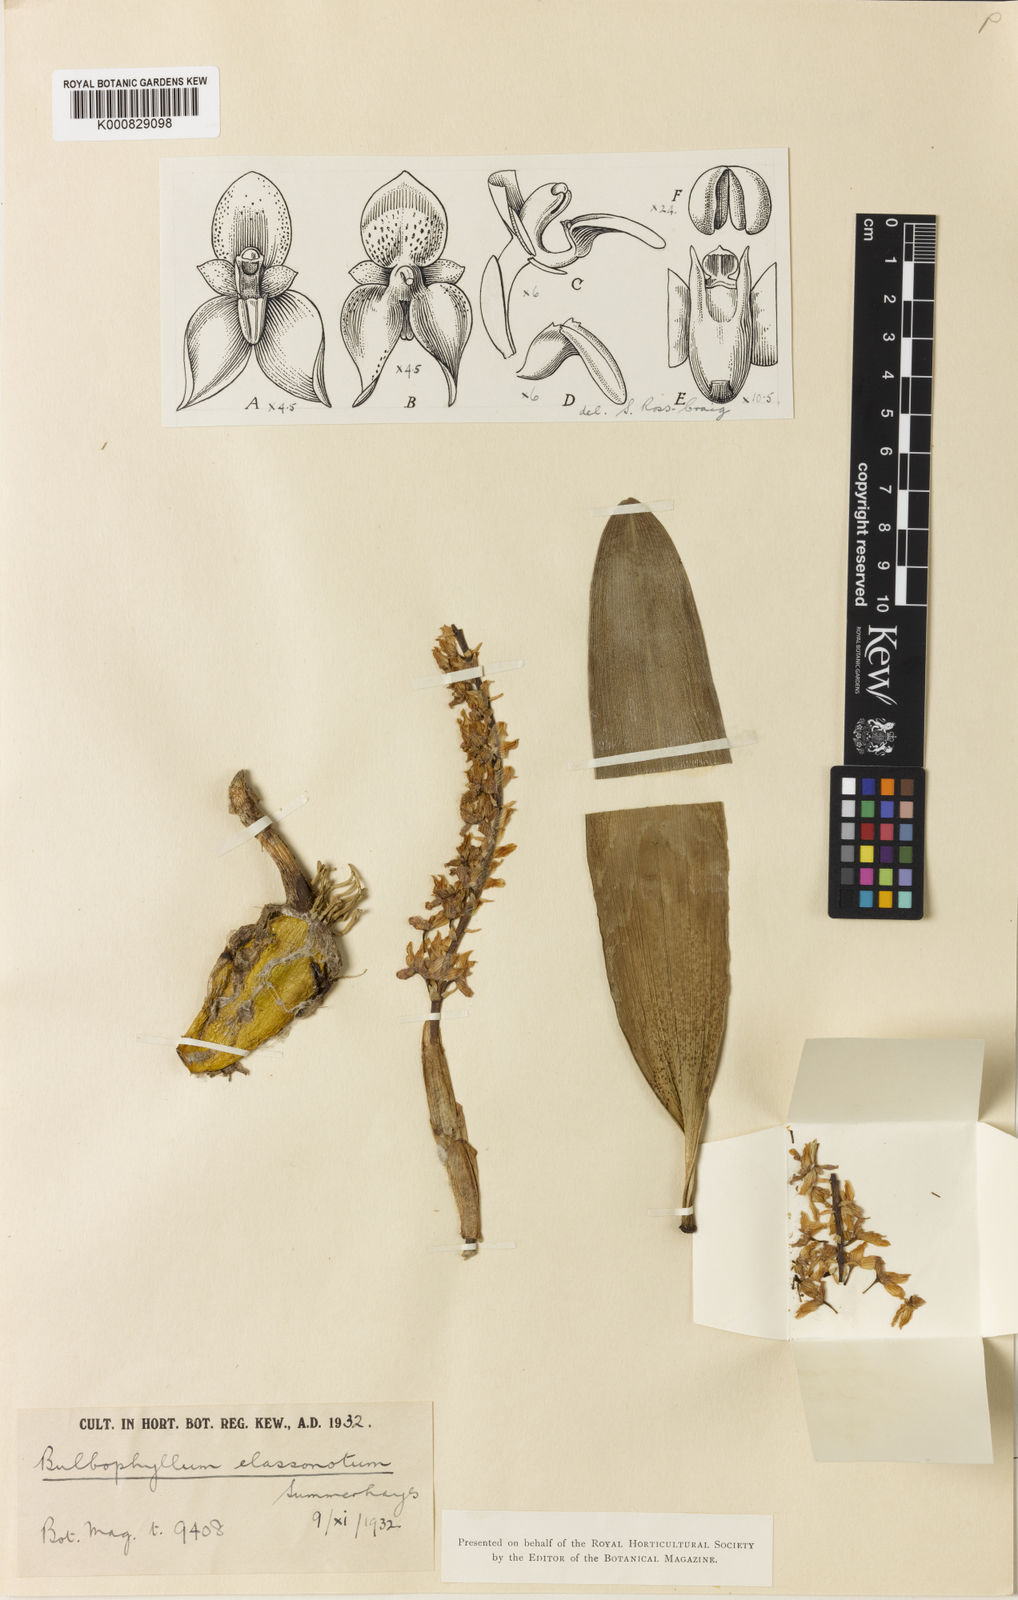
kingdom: Plantae
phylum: Tracheophyta
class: Liliopsida
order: Asparagales
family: Orchidaceae
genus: Bulbophyllum
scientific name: Bulbophyllum elassonotum
